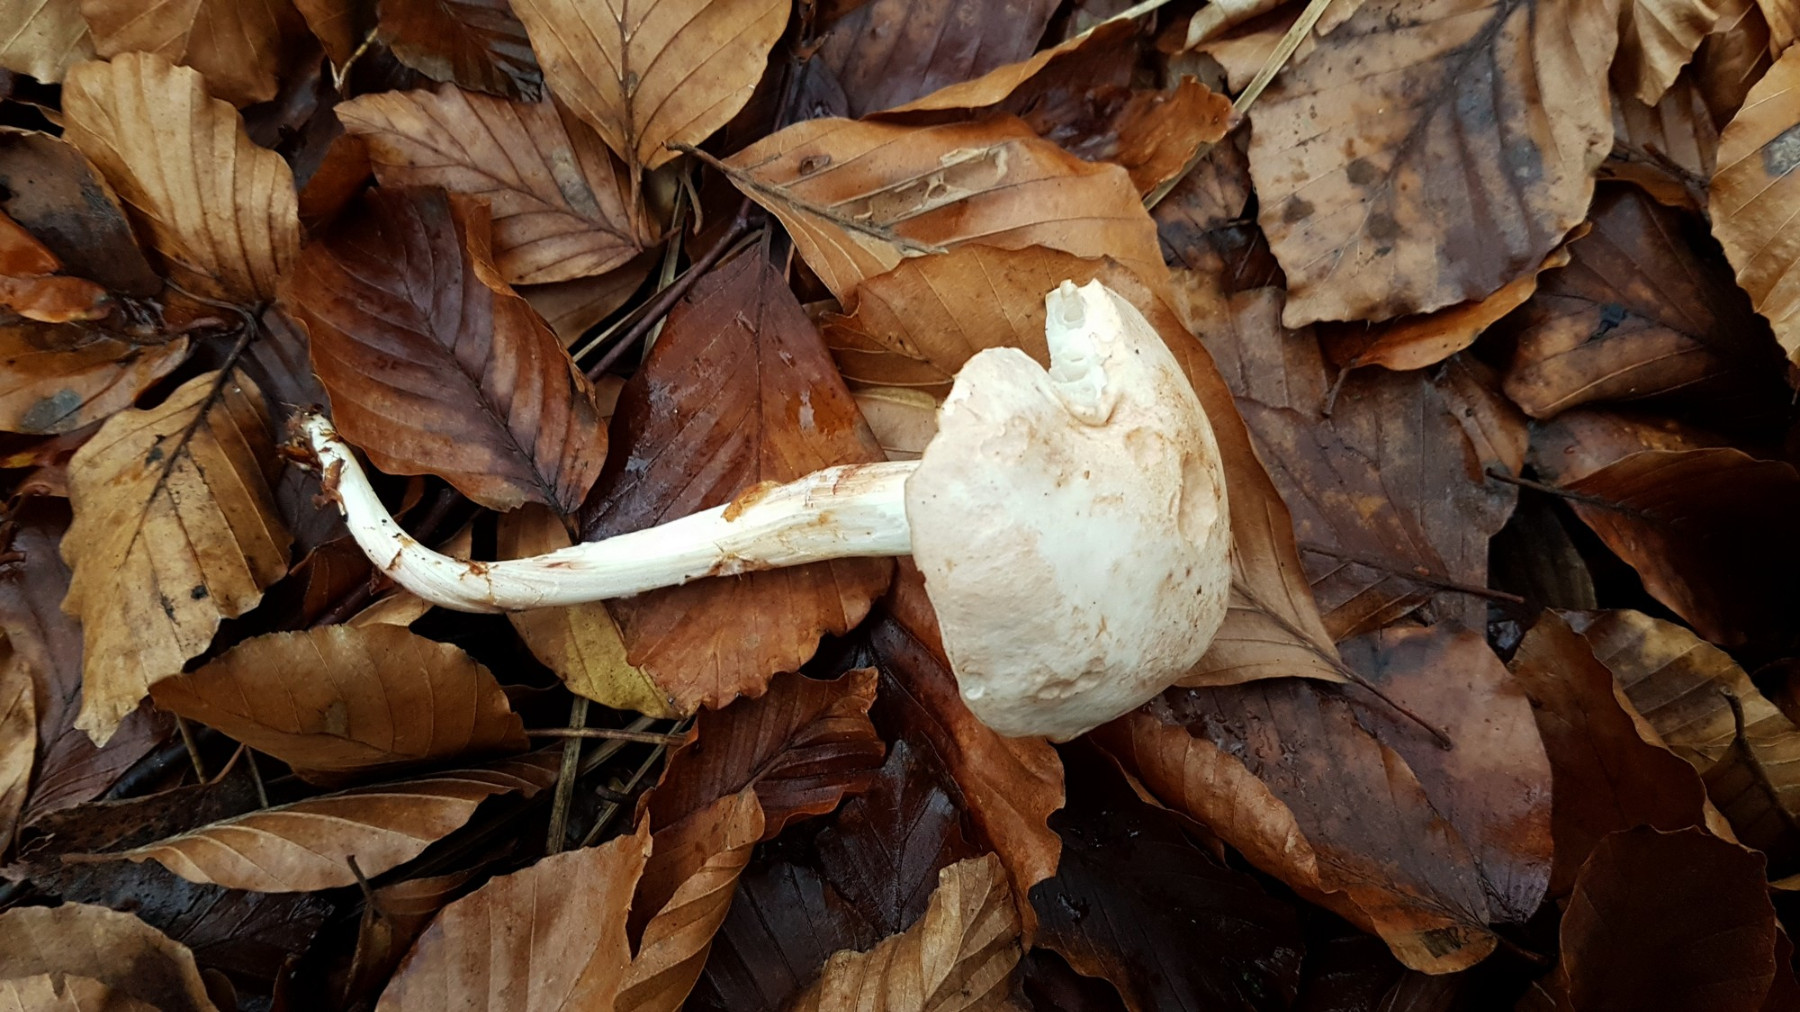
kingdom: Fungi
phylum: Basidiomycota
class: Agaricomycetes
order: Agaricales
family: Omphalotaceae
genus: Rhodocollybia
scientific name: Rhodocollybia maculata
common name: plettet fladhat
